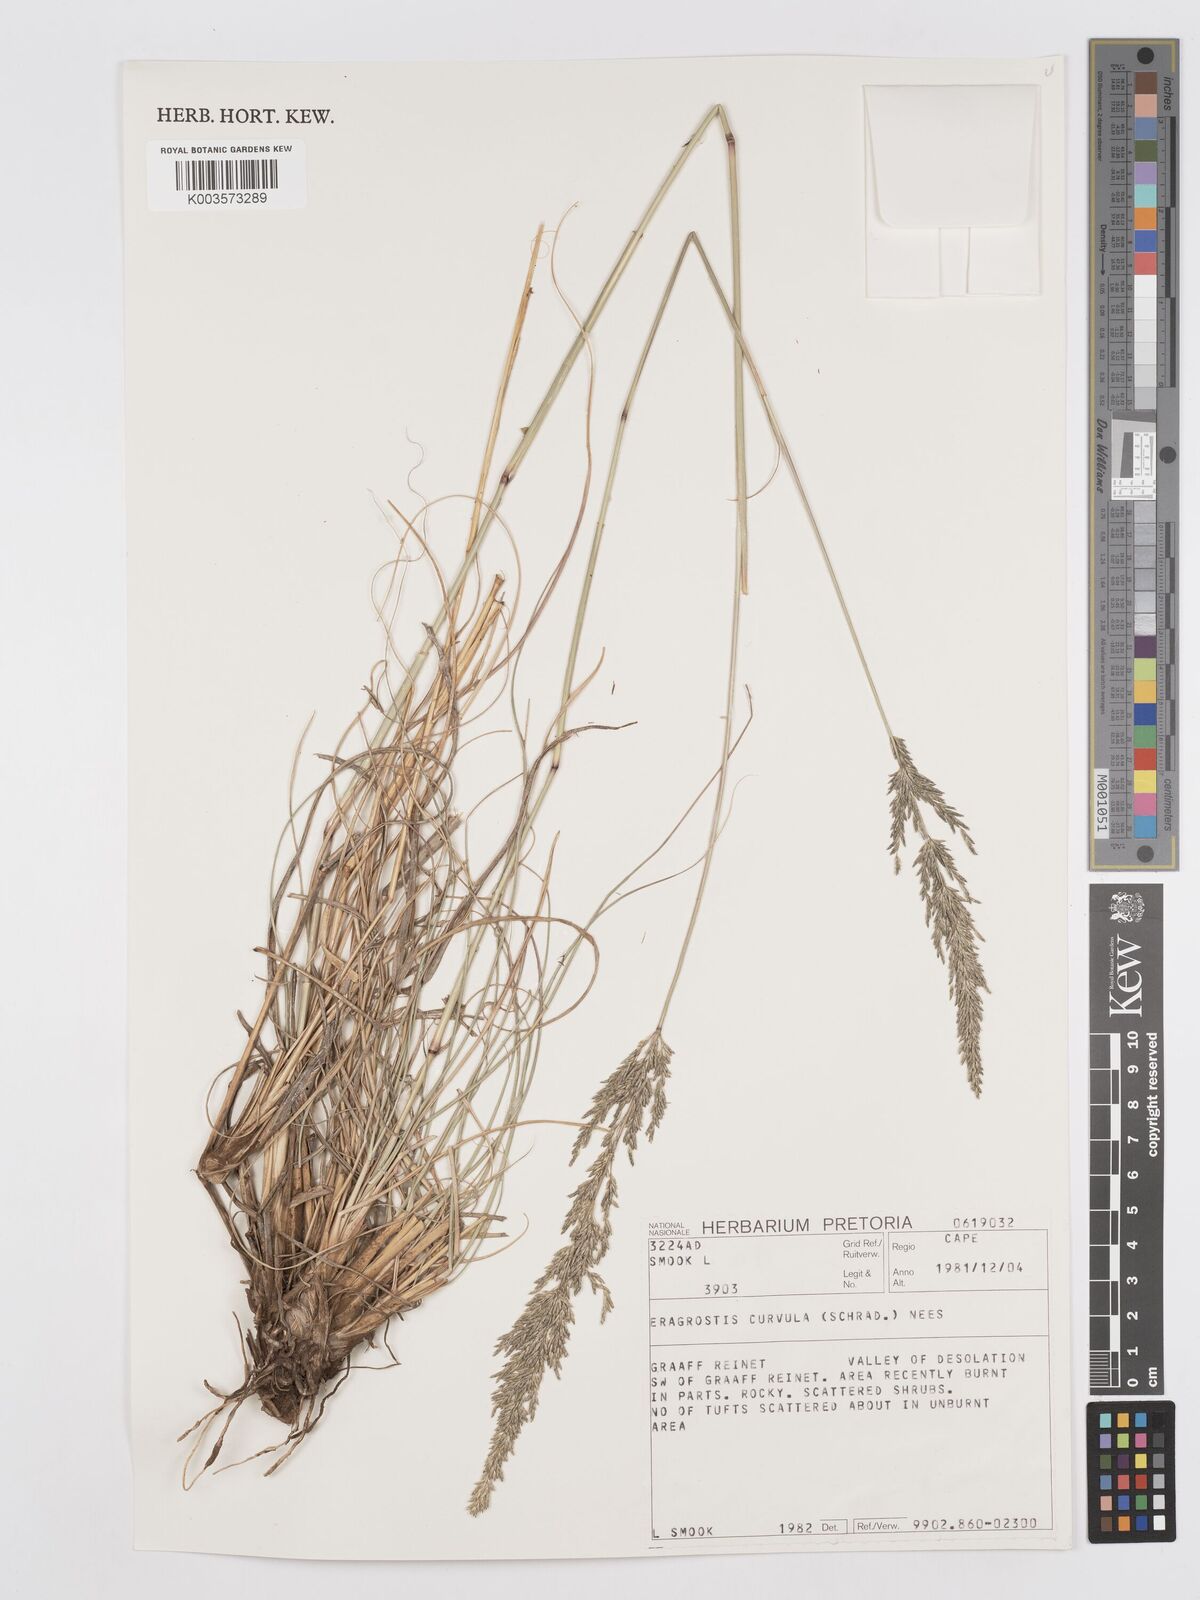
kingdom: Plantae
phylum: Tracheophyta
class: Liliopsida
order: Poales
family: Poaceae
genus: Eragrostis
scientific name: Eragrostis curvula
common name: African love-grass
